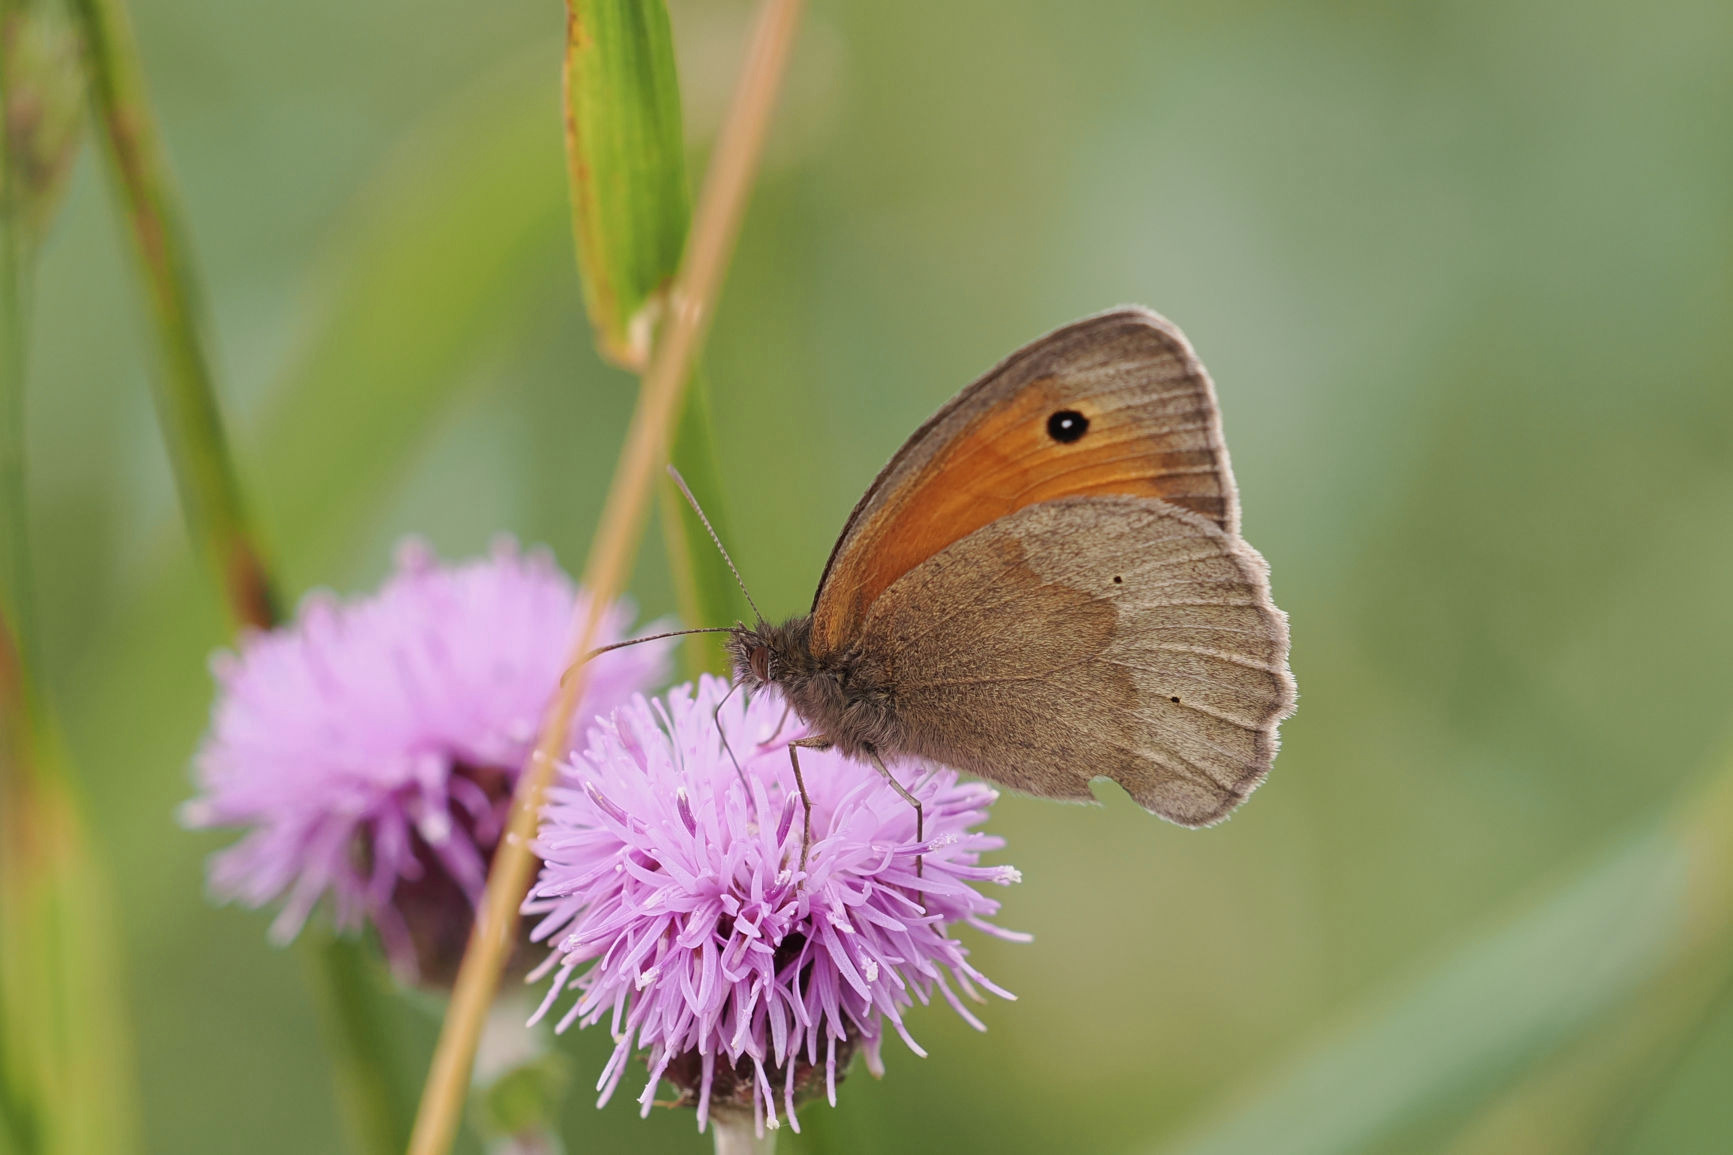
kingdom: Animalia
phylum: Arthropoda
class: Insecta
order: Lepidoptera
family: Nymphalidae
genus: Maniola
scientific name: Maniola jurtina
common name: Græsrandøje
